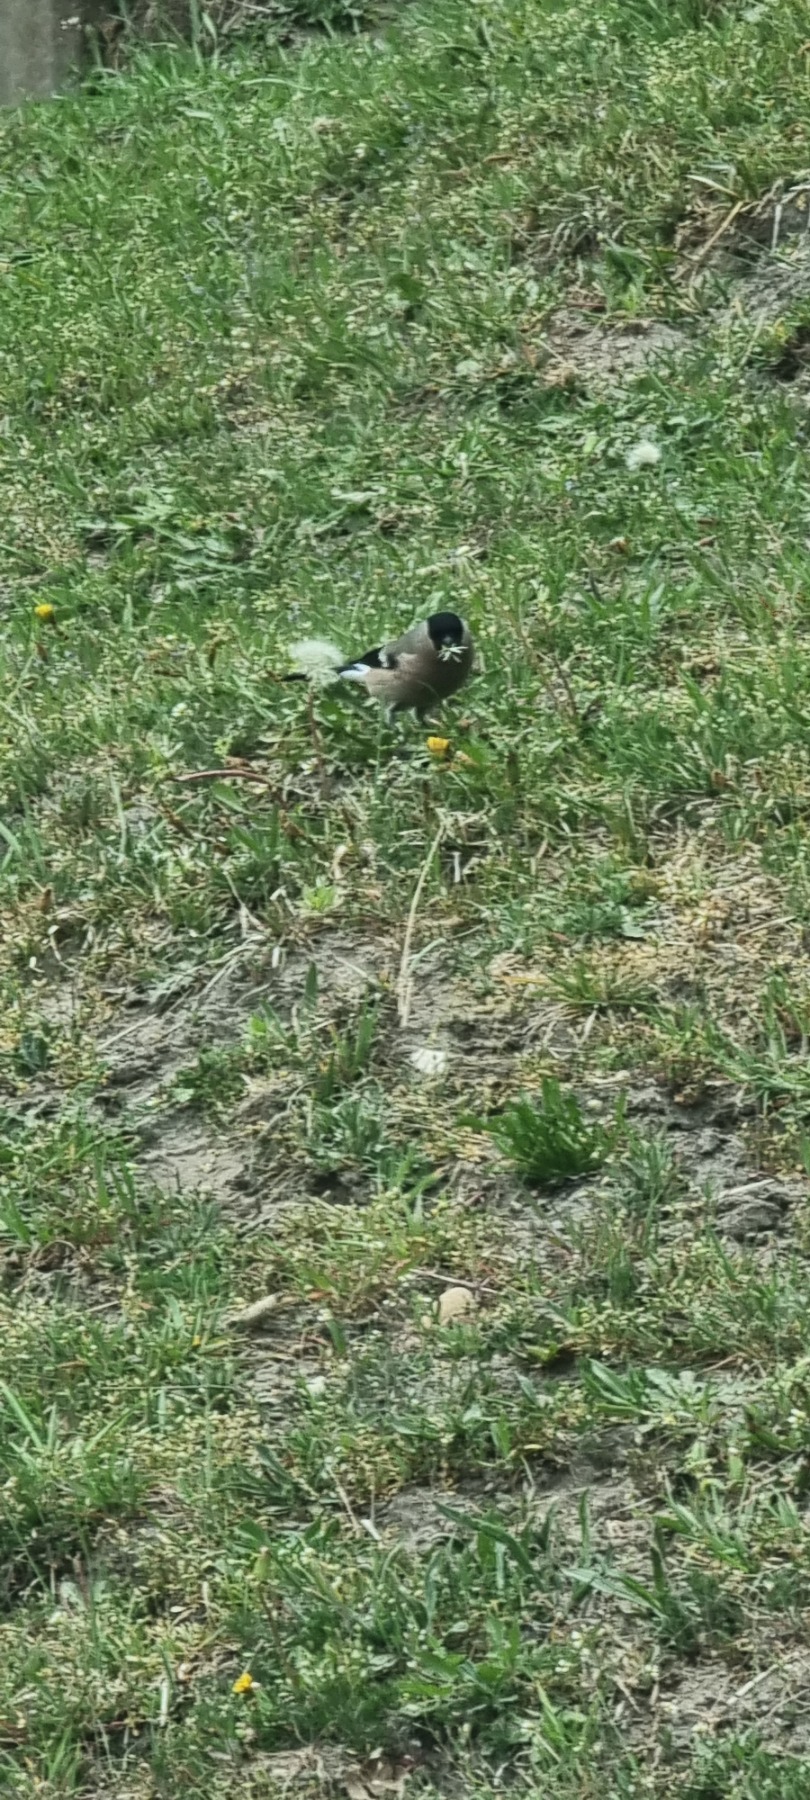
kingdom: Animalia
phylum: Chordata
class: Aves
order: Passeriformes
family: Fringillidae
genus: Pyrrhula
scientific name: Pyrrhula pyrrhula
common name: Dompap
